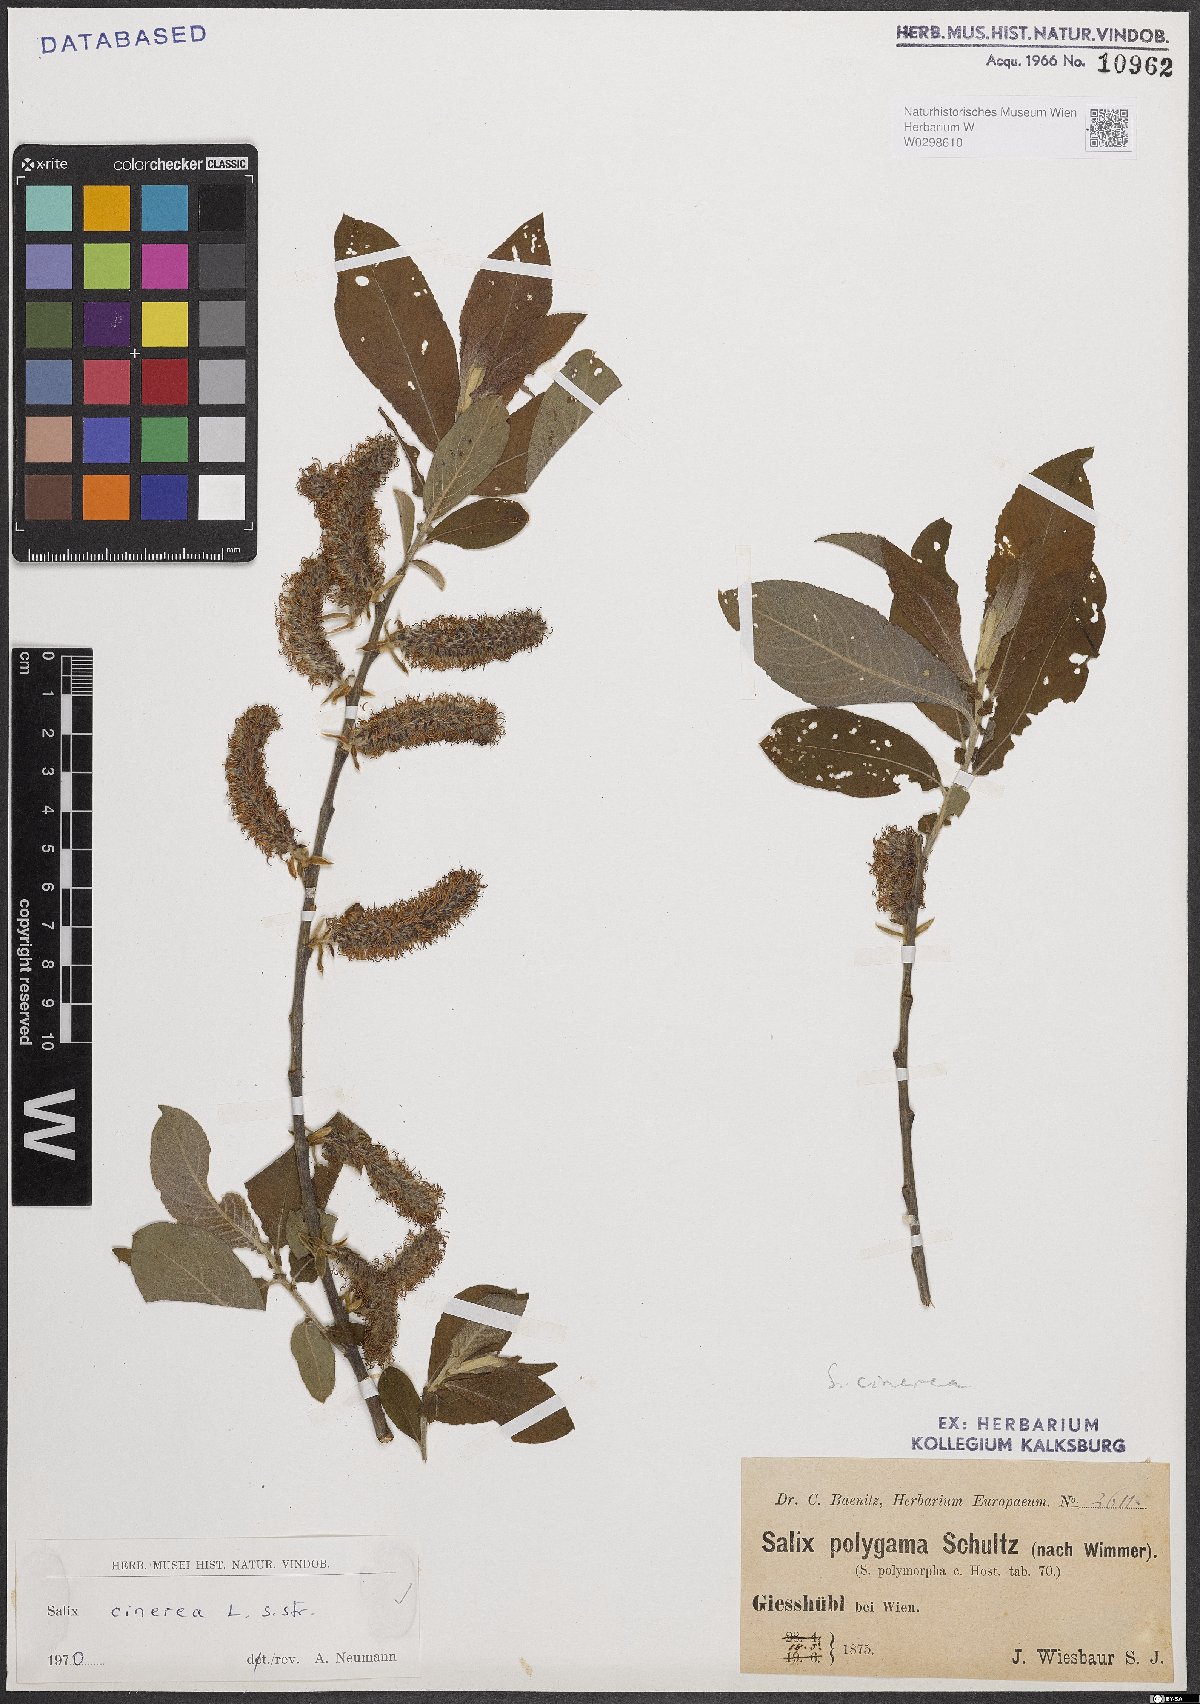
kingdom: Plantae
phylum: Tracheophyta
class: Magnoliopsida
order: Malpighiales
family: Salicaceae
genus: Salix
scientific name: Salix cinerea
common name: Common sallow
